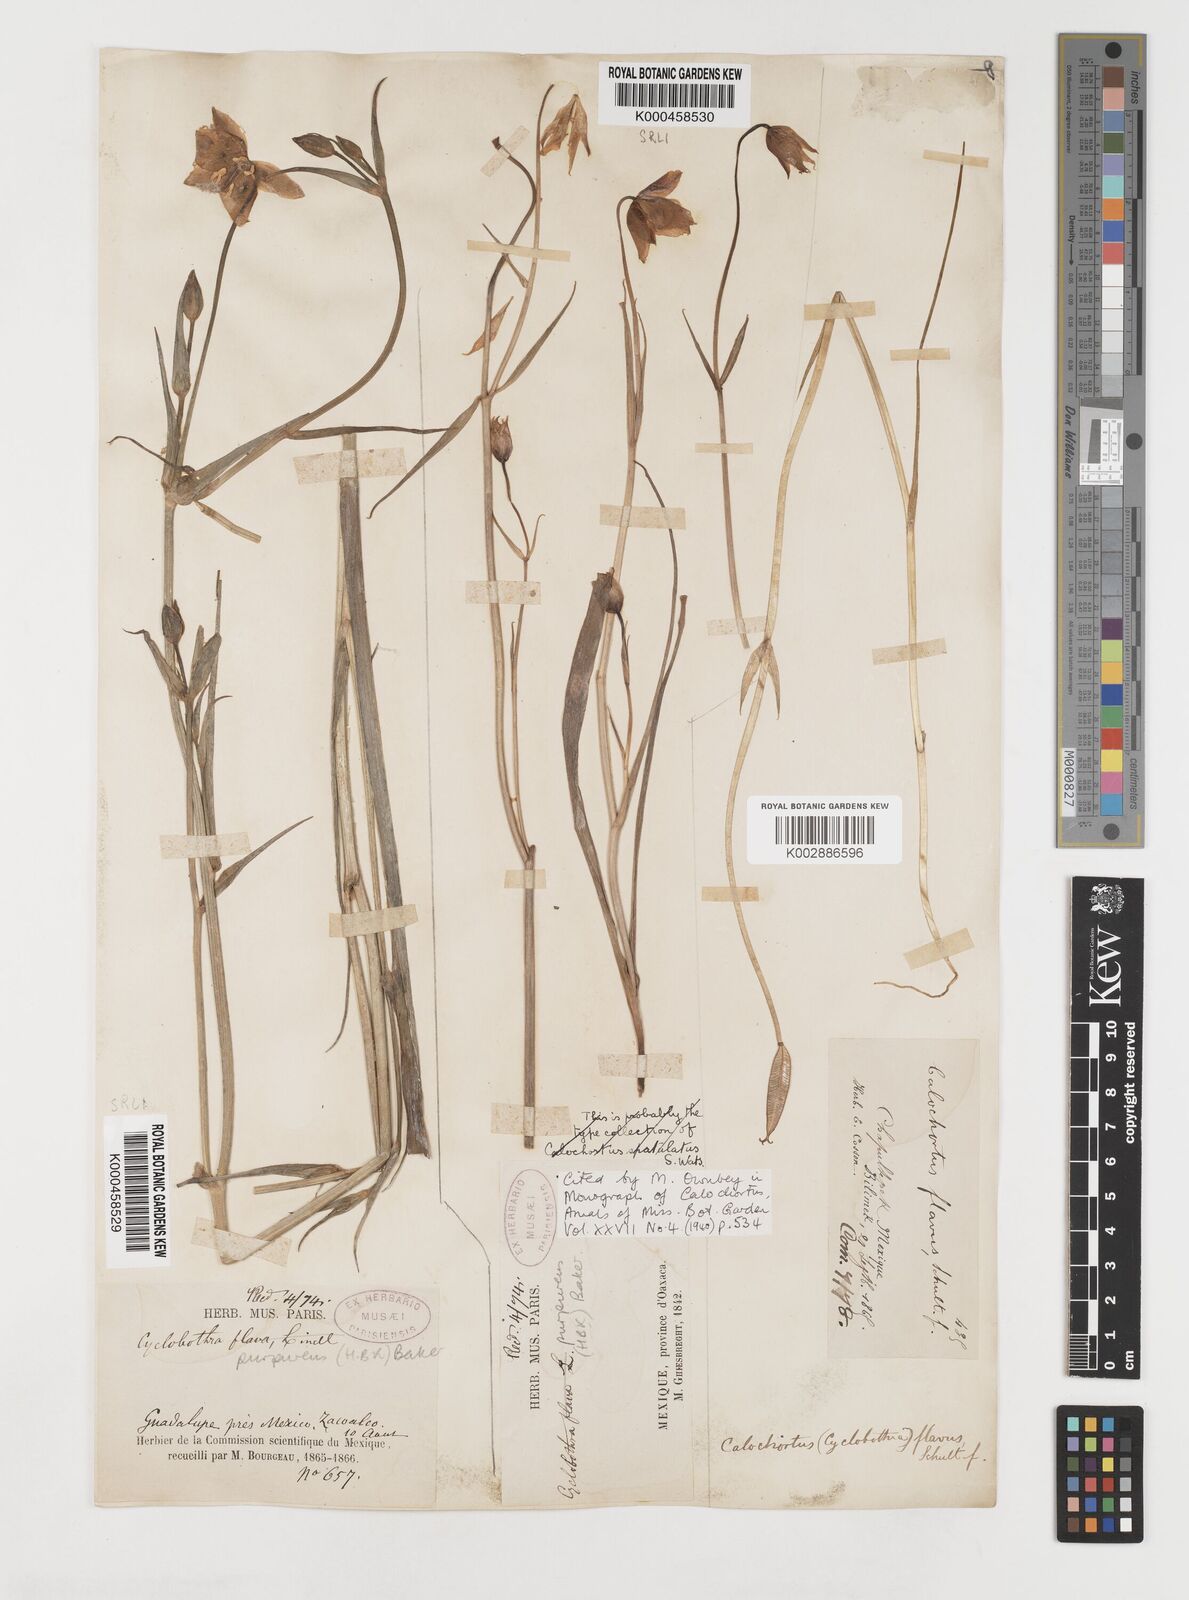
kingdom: Plantae
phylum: Tracheophyta
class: Liliopsida
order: Liliales
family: Liliaceae
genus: Calochortus
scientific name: Calochortus purpureus
